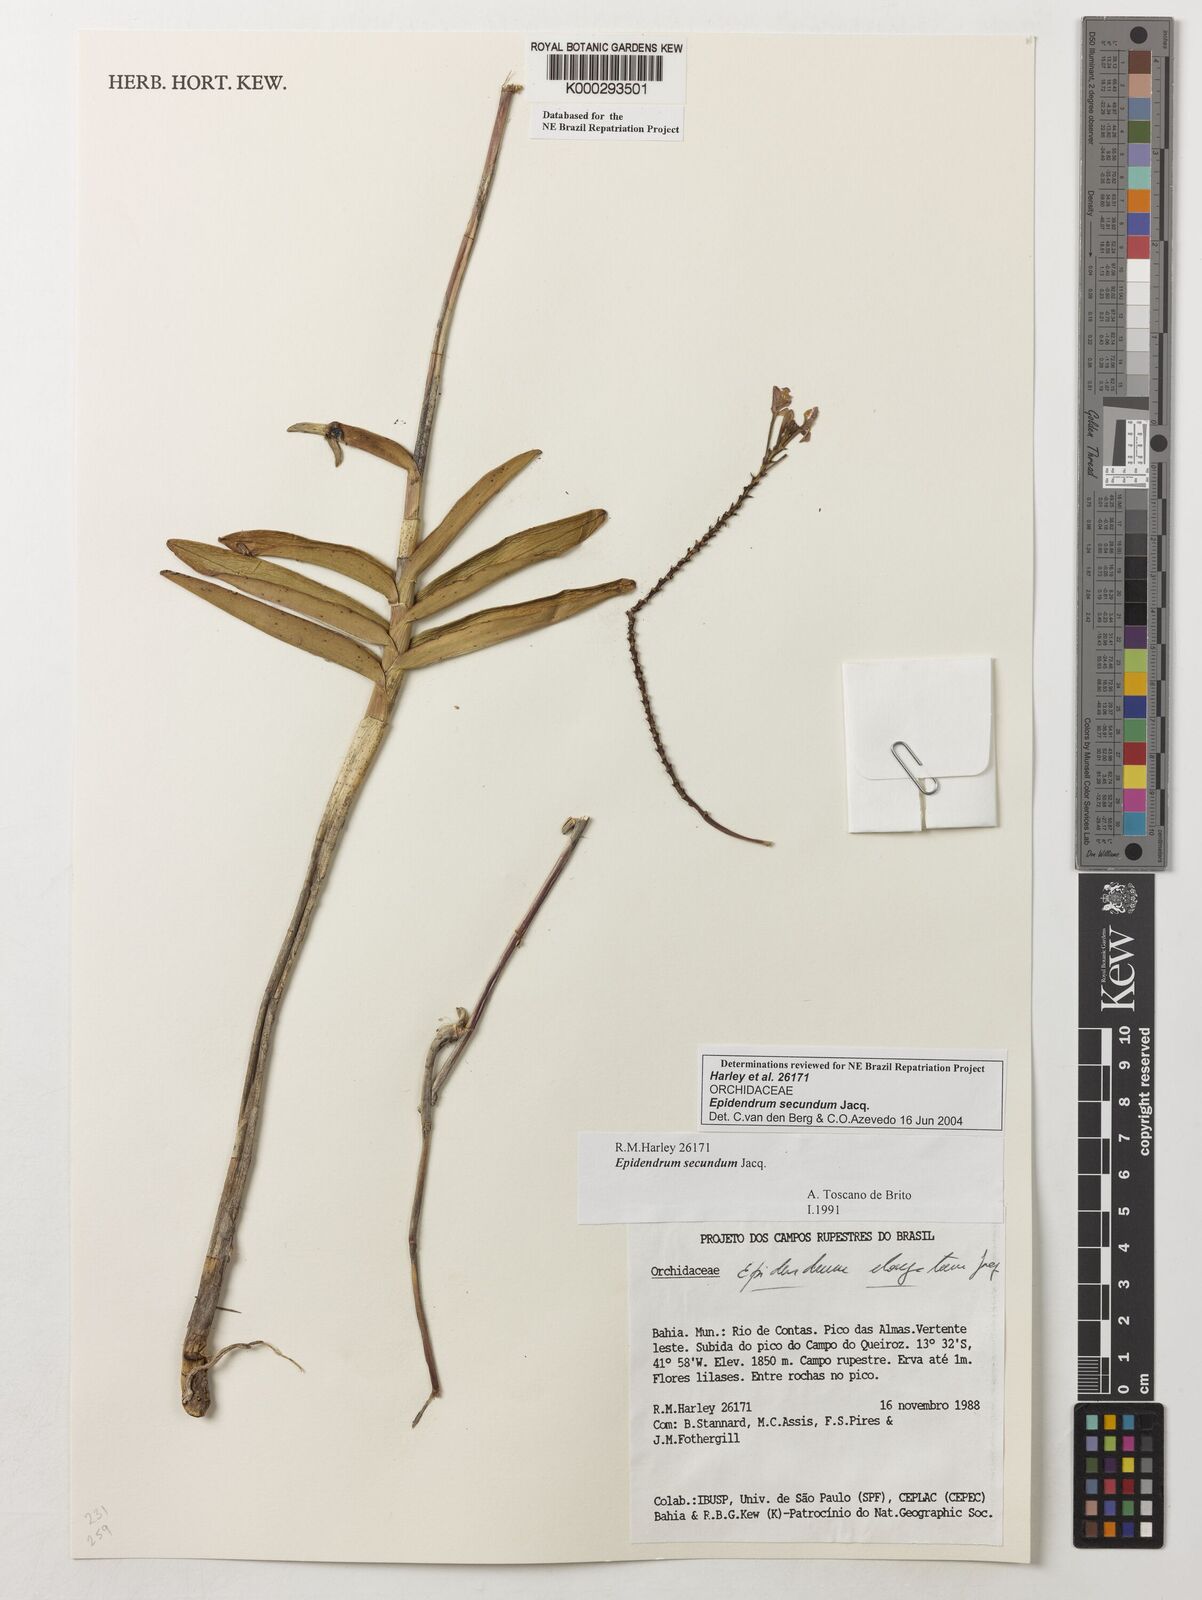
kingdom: Plantae
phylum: Tracheophyta
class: Liliopsida
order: Asparagales
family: Orchidaceae
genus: Epidendrum
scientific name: Epidendrum secundum
